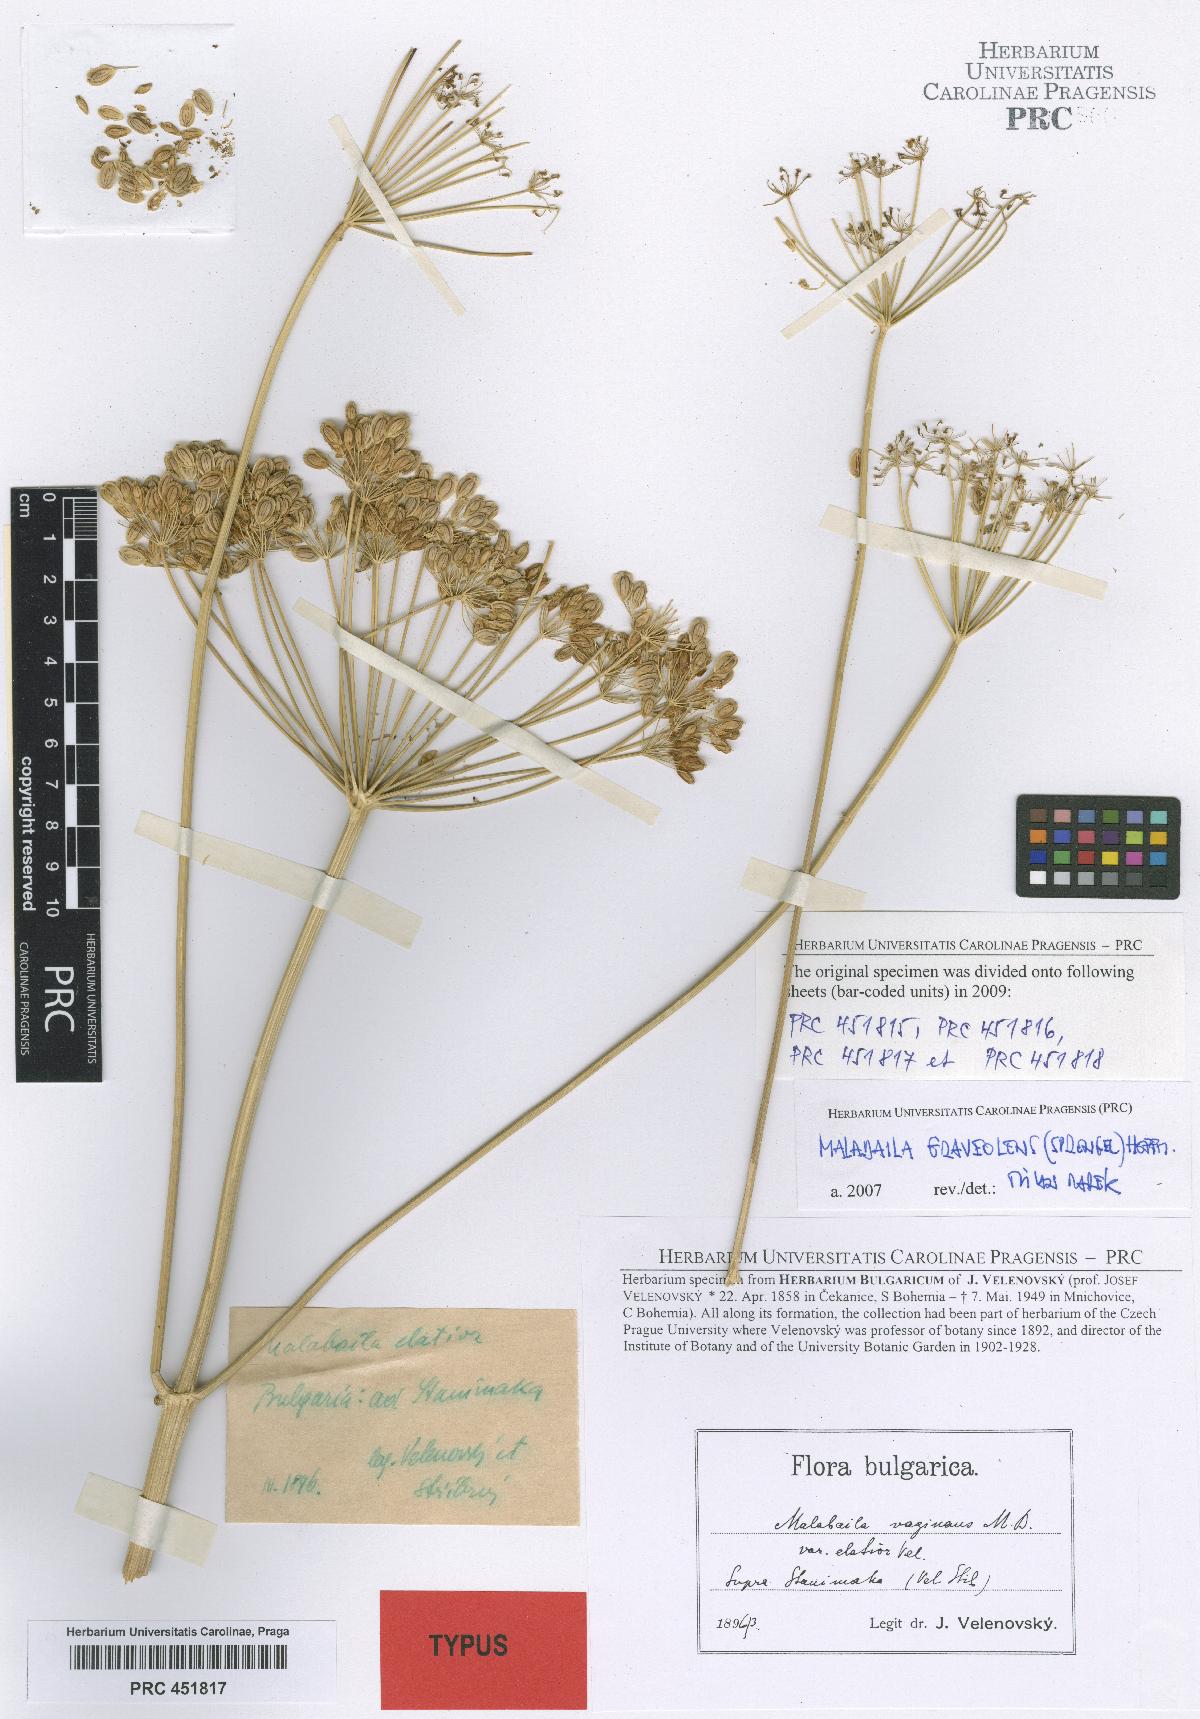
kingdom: Plantae
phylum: Tracheophyta
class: Magnoliopsida
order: Apiales
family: Apiaceae
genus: Pastinaca
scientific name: Pastinaca clausii
